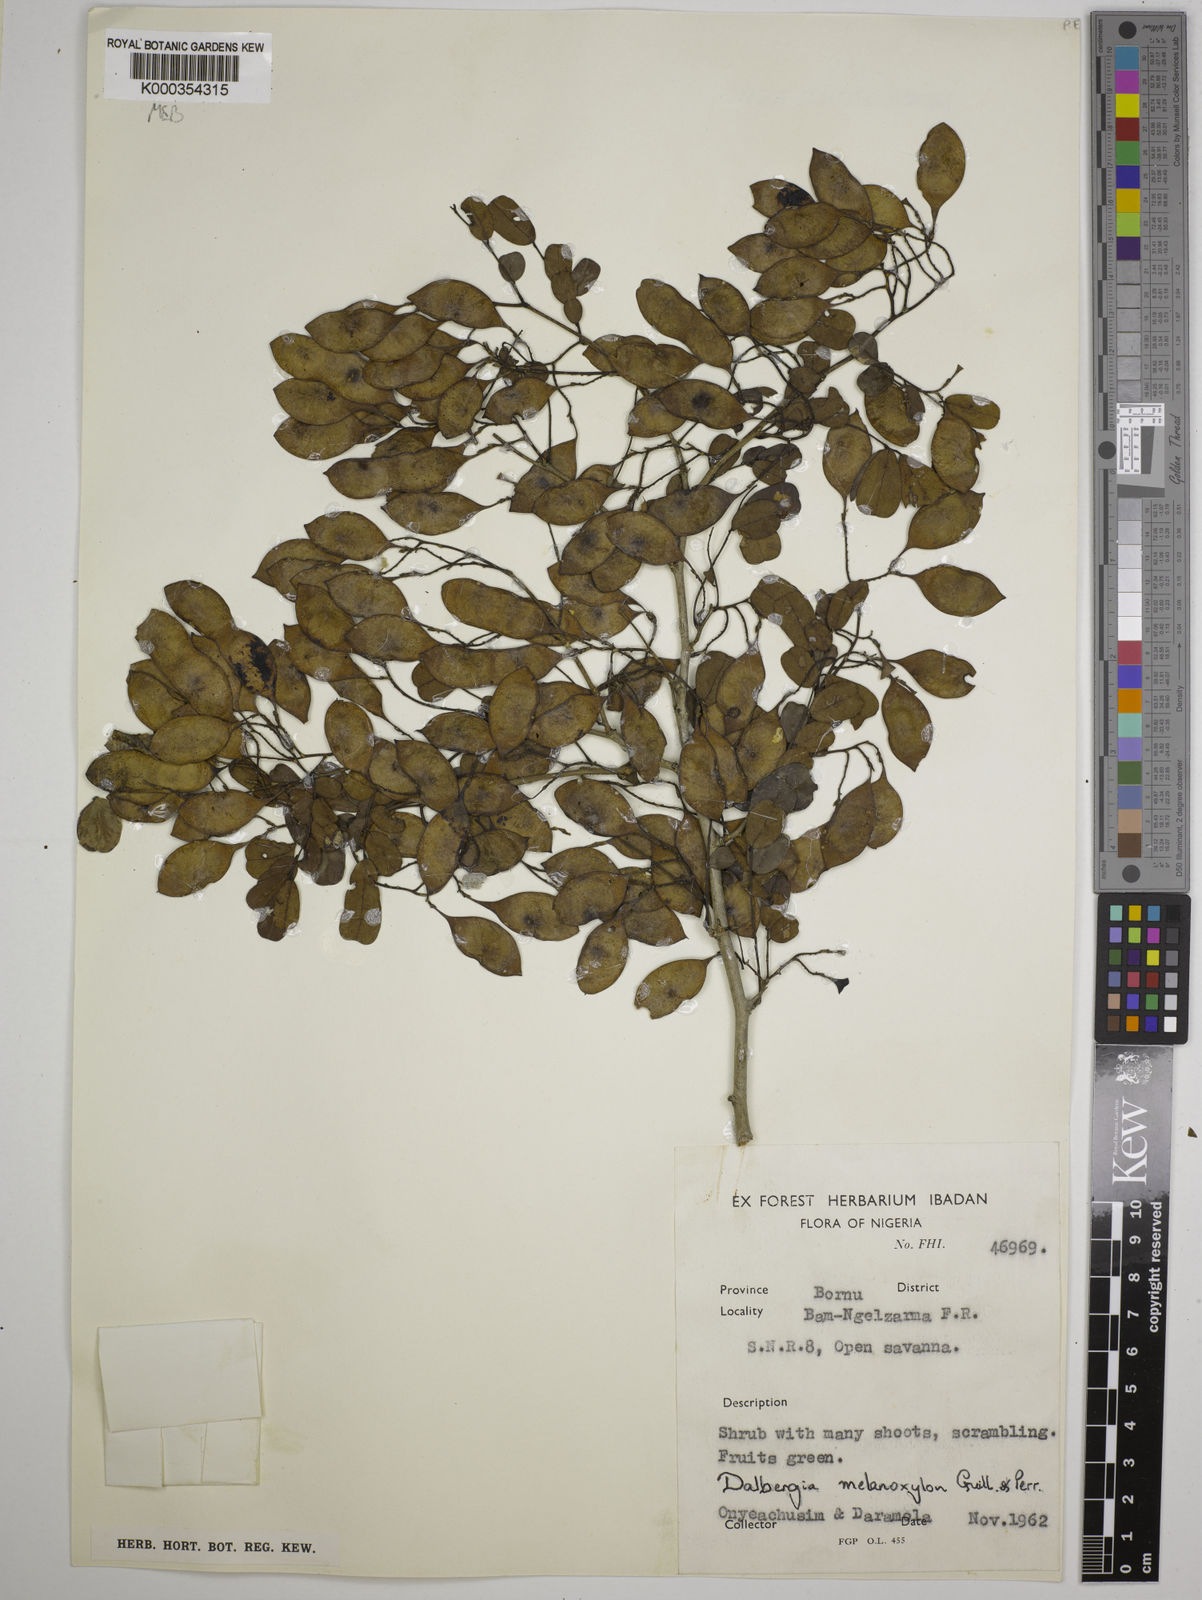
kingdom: Plantae
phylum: Tracheophyta
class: Magnoliopsida
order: Fabales
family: Fabaceae
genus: Dalbergia
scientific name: Dalbergia melanoxylon
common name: African blackwood
